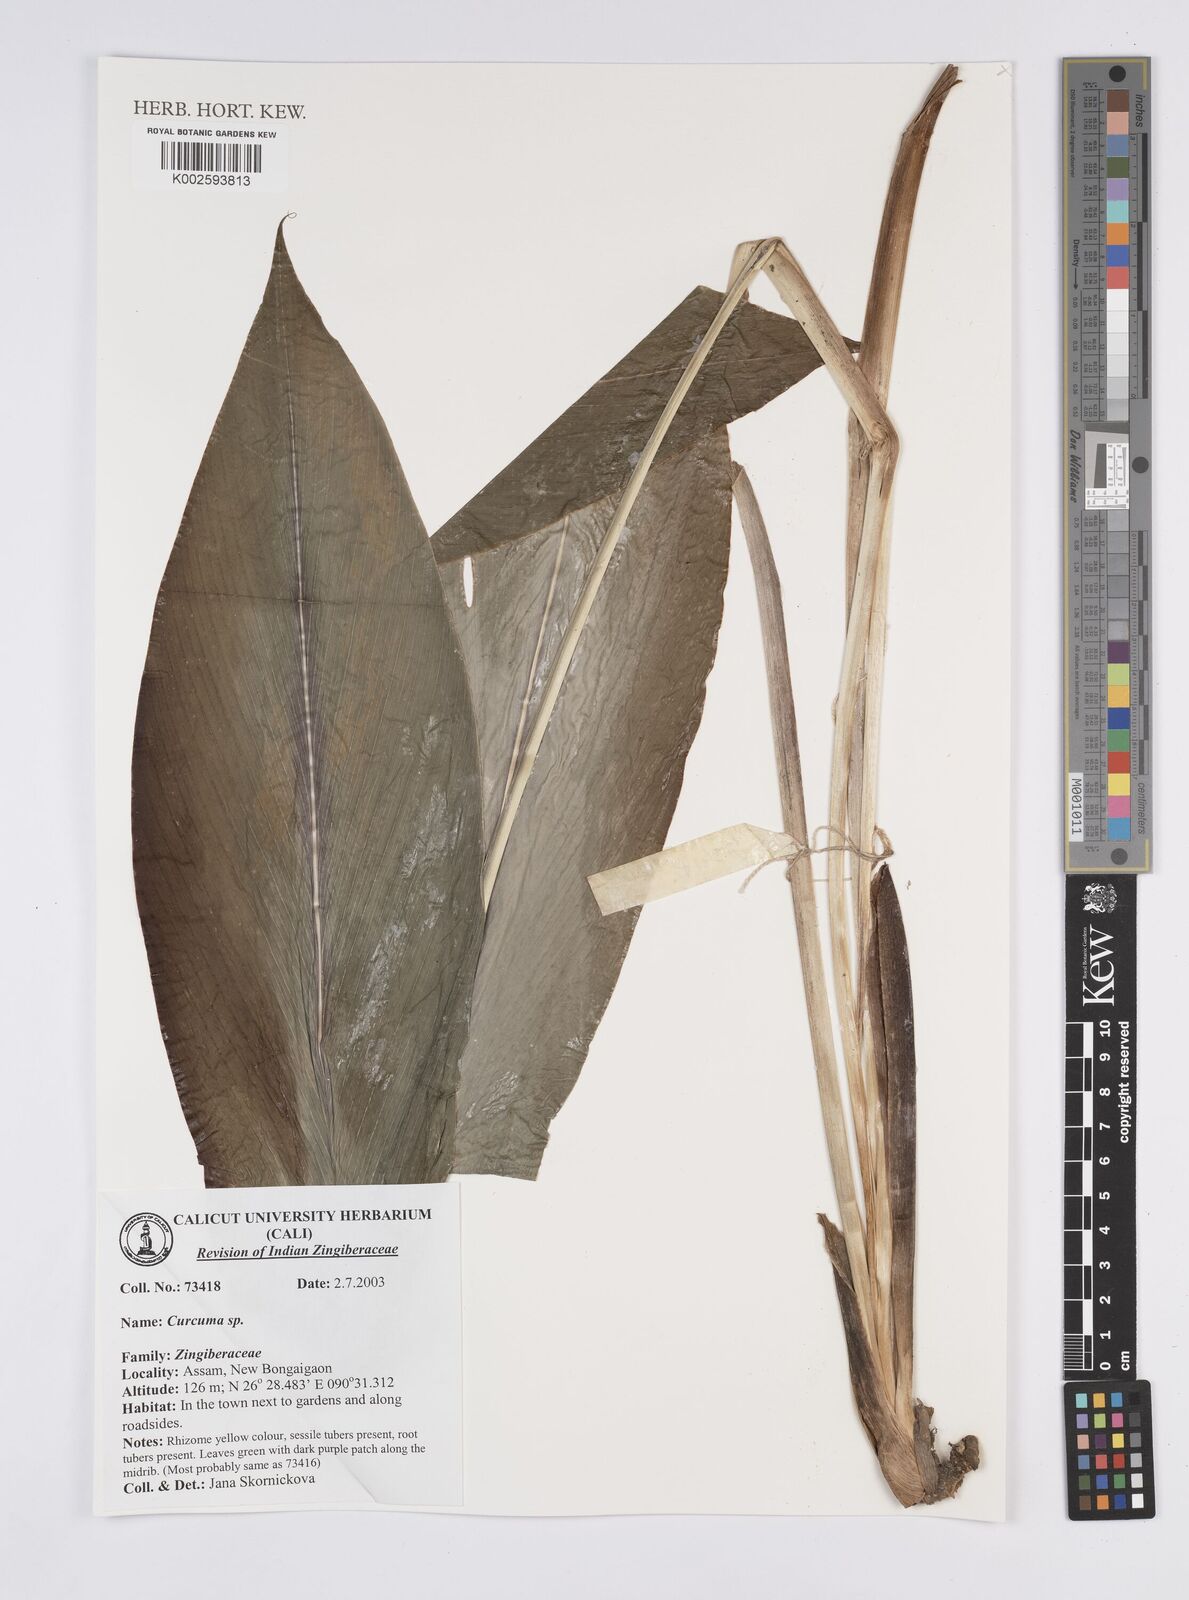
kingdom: Plantae
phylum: Tracheophyta
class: Liliopsida
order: Zingiberales
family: Zingiberaceae
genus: Curcuma
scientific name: Curcuma
